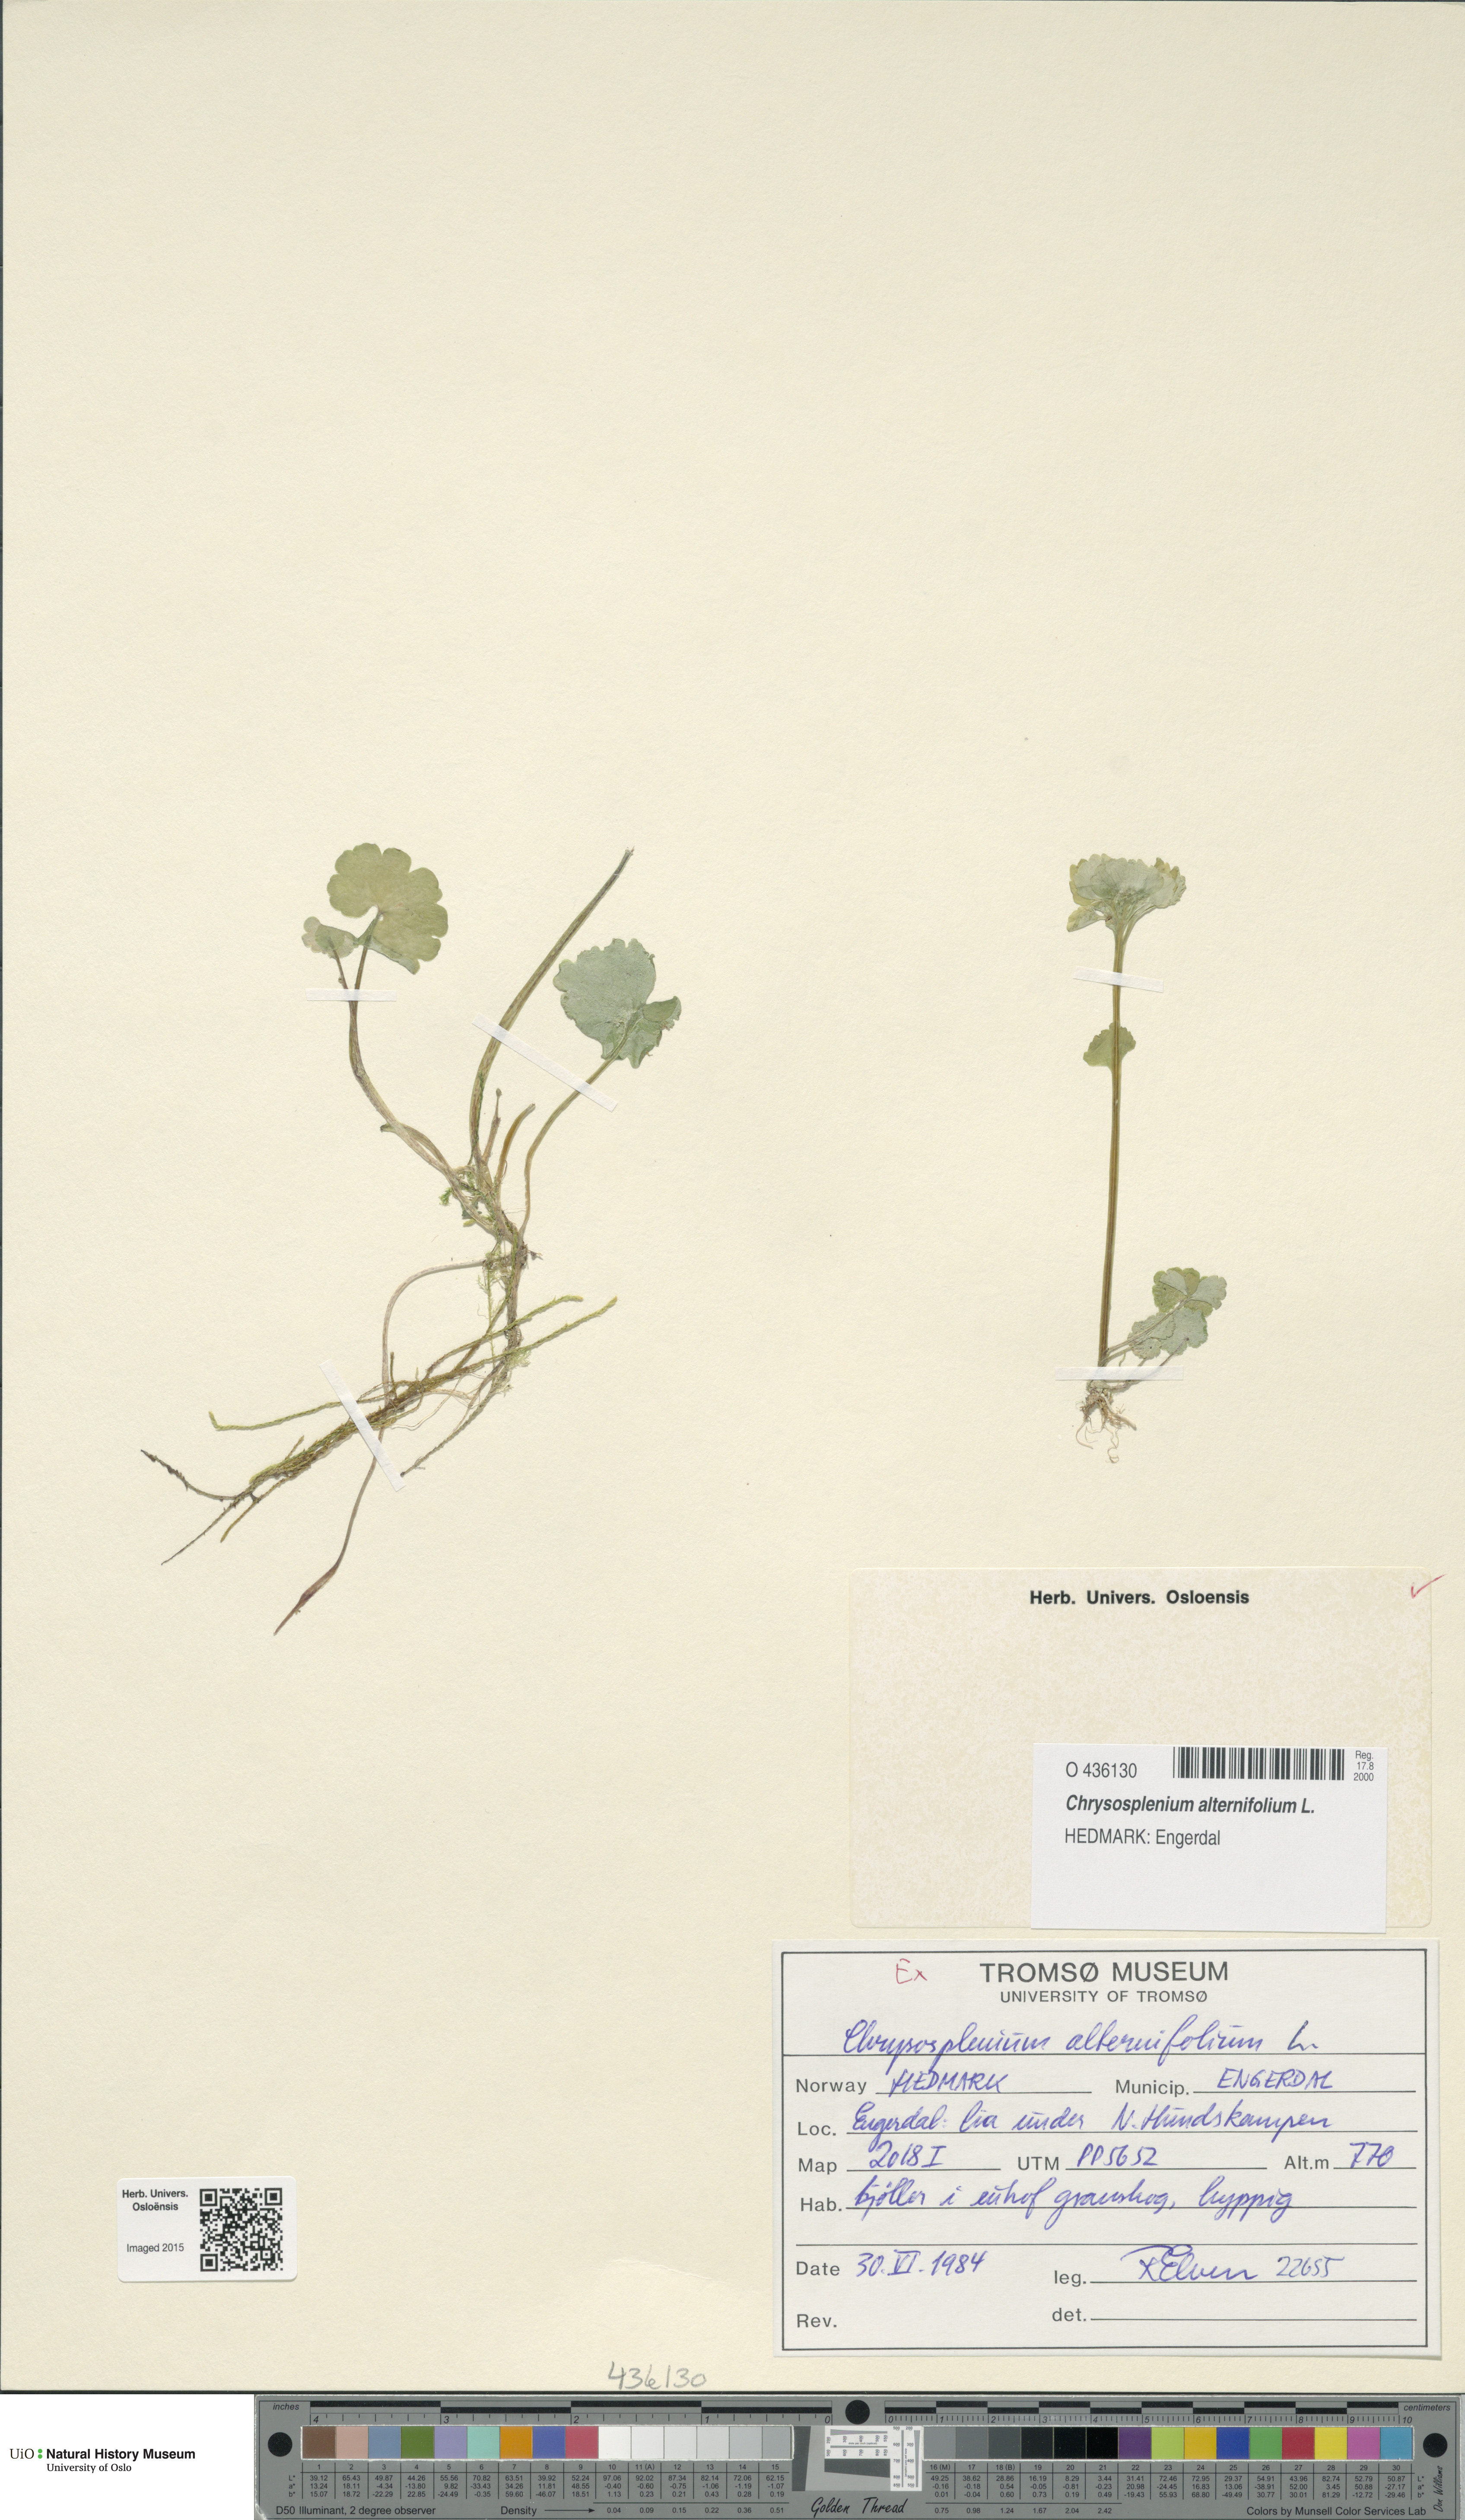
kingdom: Plantae
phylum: Tracheophyta
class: Magnoliopsida
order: Saxifragales
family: Saxifragaceae
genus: Chrysosplenium
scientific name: Chrysosplenium alternifolium
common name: Alternate-leaved golden-saxifrage
